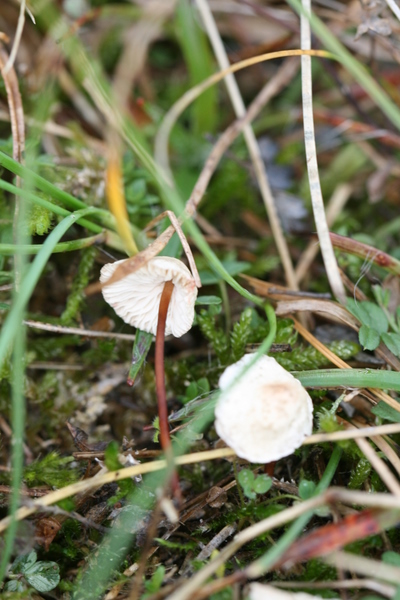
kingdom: Fungi
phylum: Basidiomycota
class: Agaricomycetes
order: Agaricales
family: Omphalotaceae
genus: Mycetinis
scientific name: Mycetinis scorodonius
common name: lille løghat
